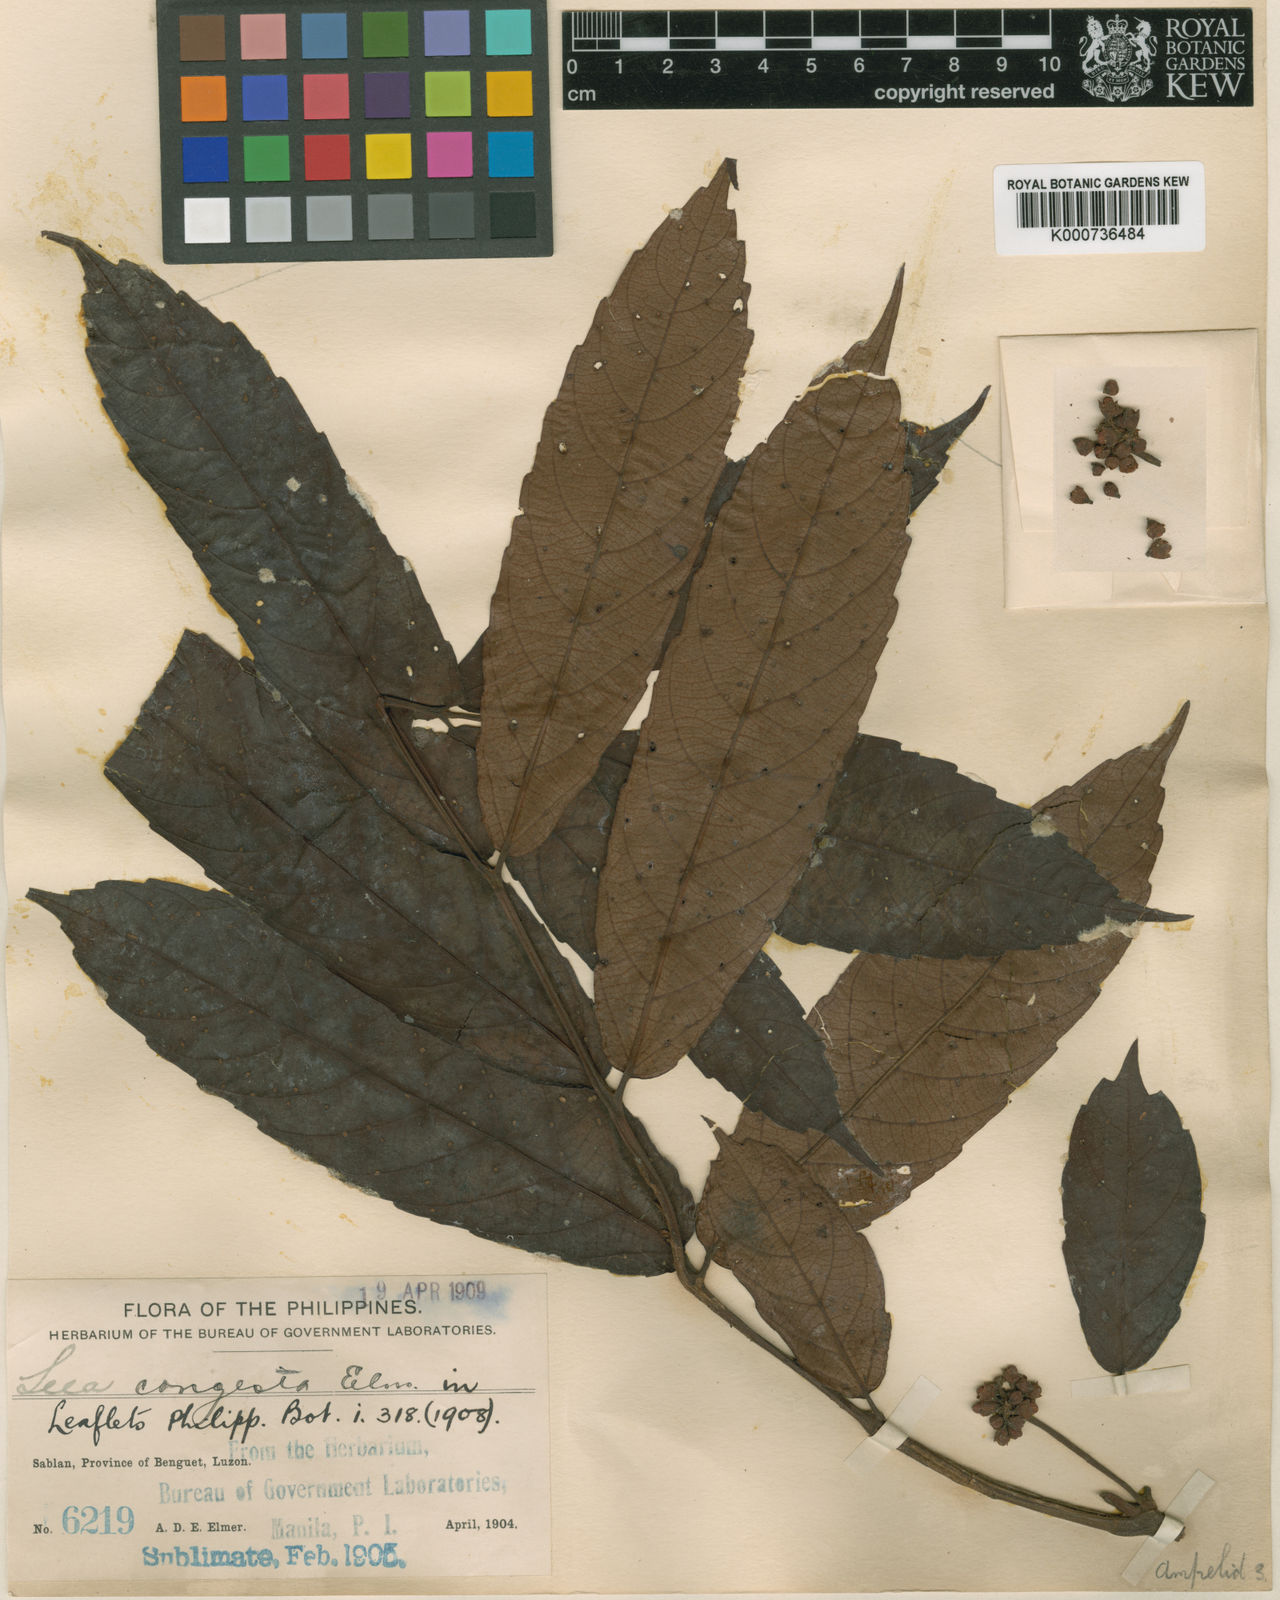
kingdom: Plantae
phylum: Tracheophyta
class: Magnoliopsida
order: Vitales
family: Vitaceae
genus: Leea
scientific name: Leea congesta
